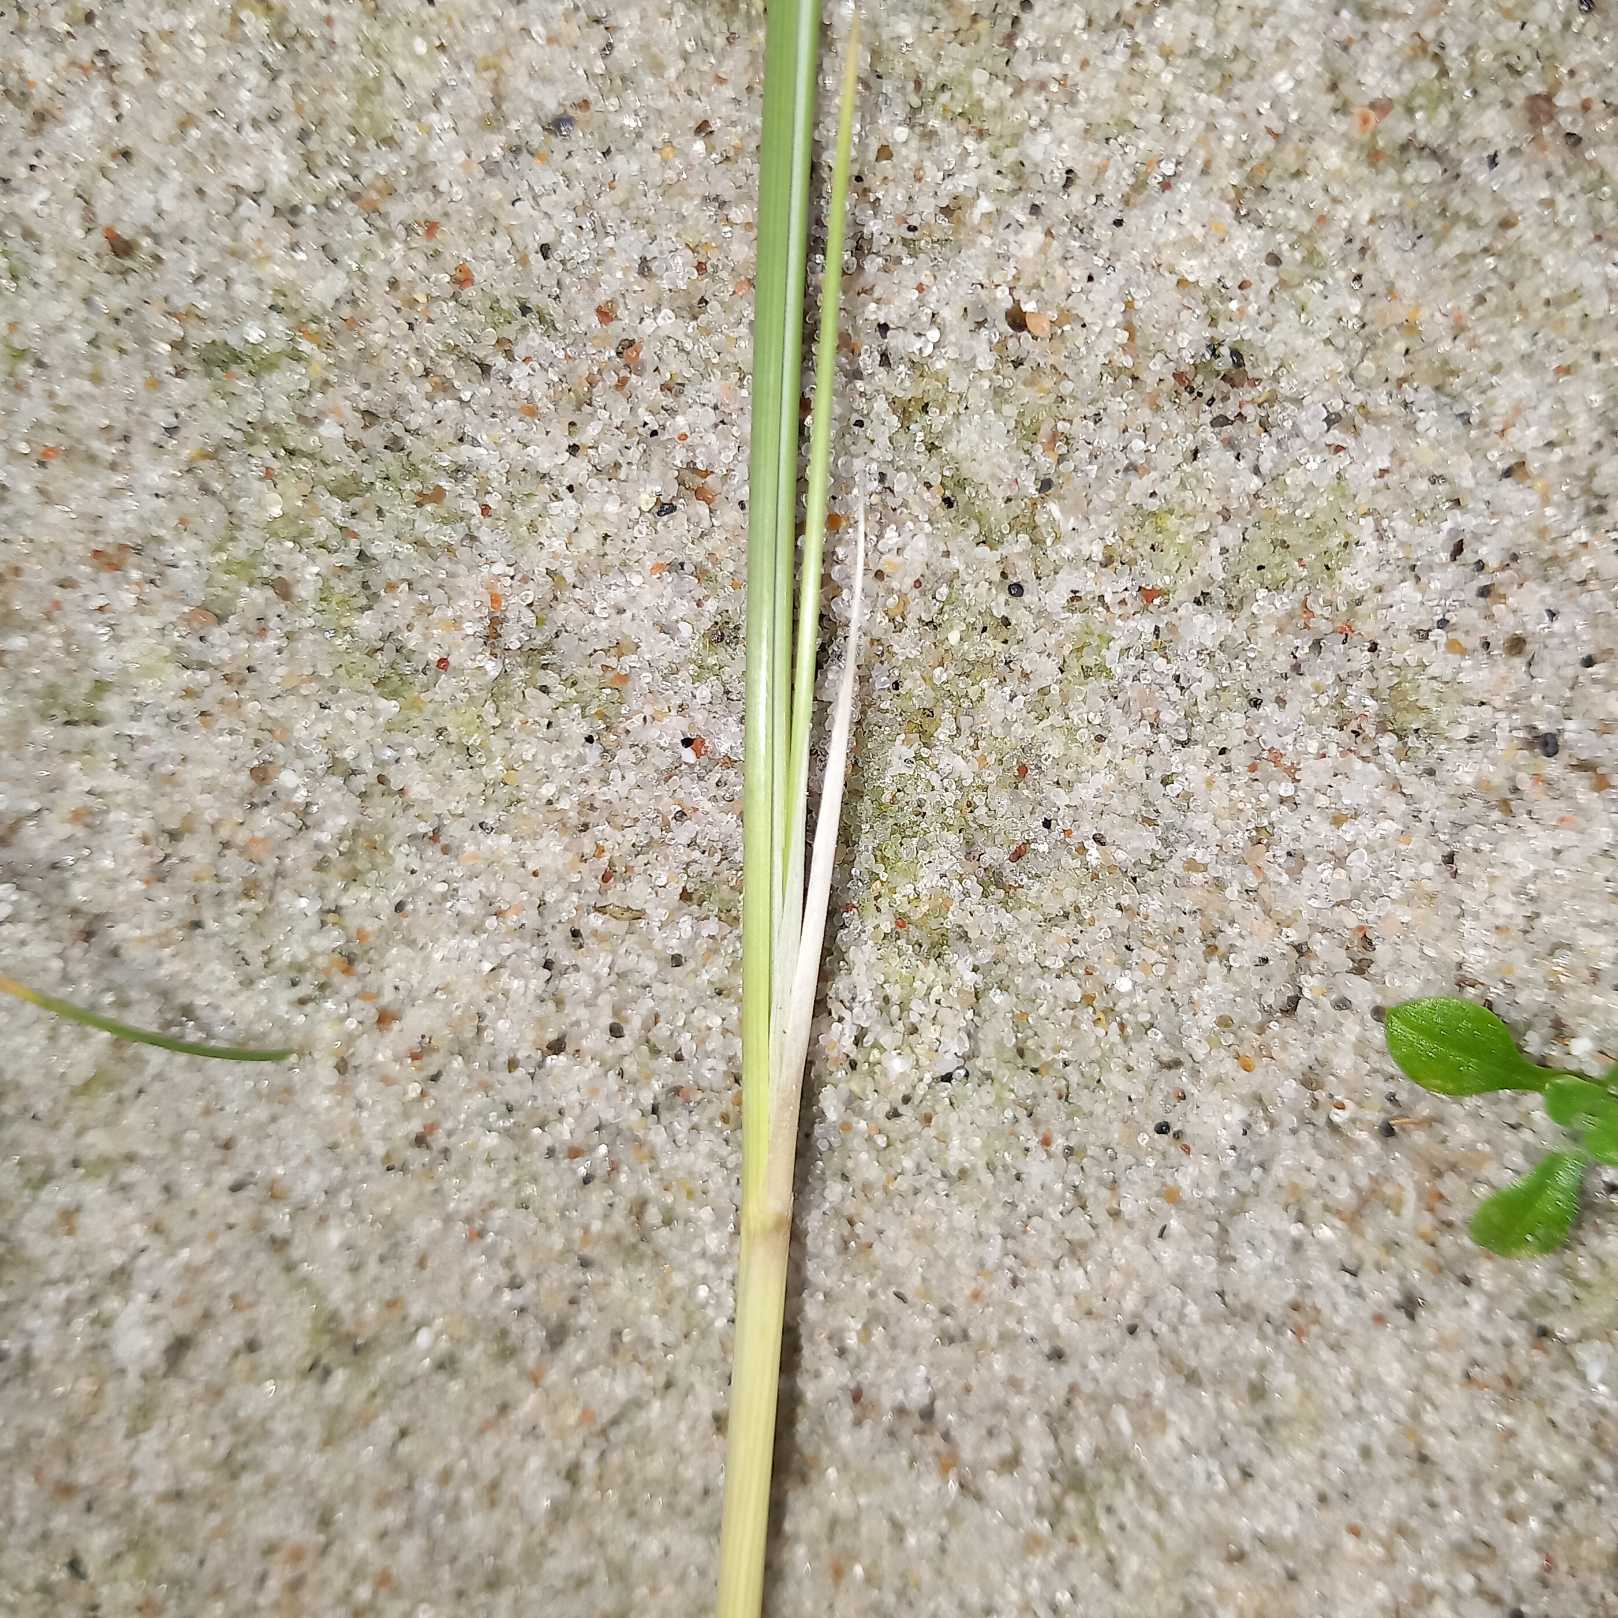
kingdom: Plantae
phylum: Tracheophyta
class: Liliopsida
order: Poales
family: Poaceae
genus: Calamagrostis
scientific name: Calamagrostis arenaria
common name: Sand-hjælme
